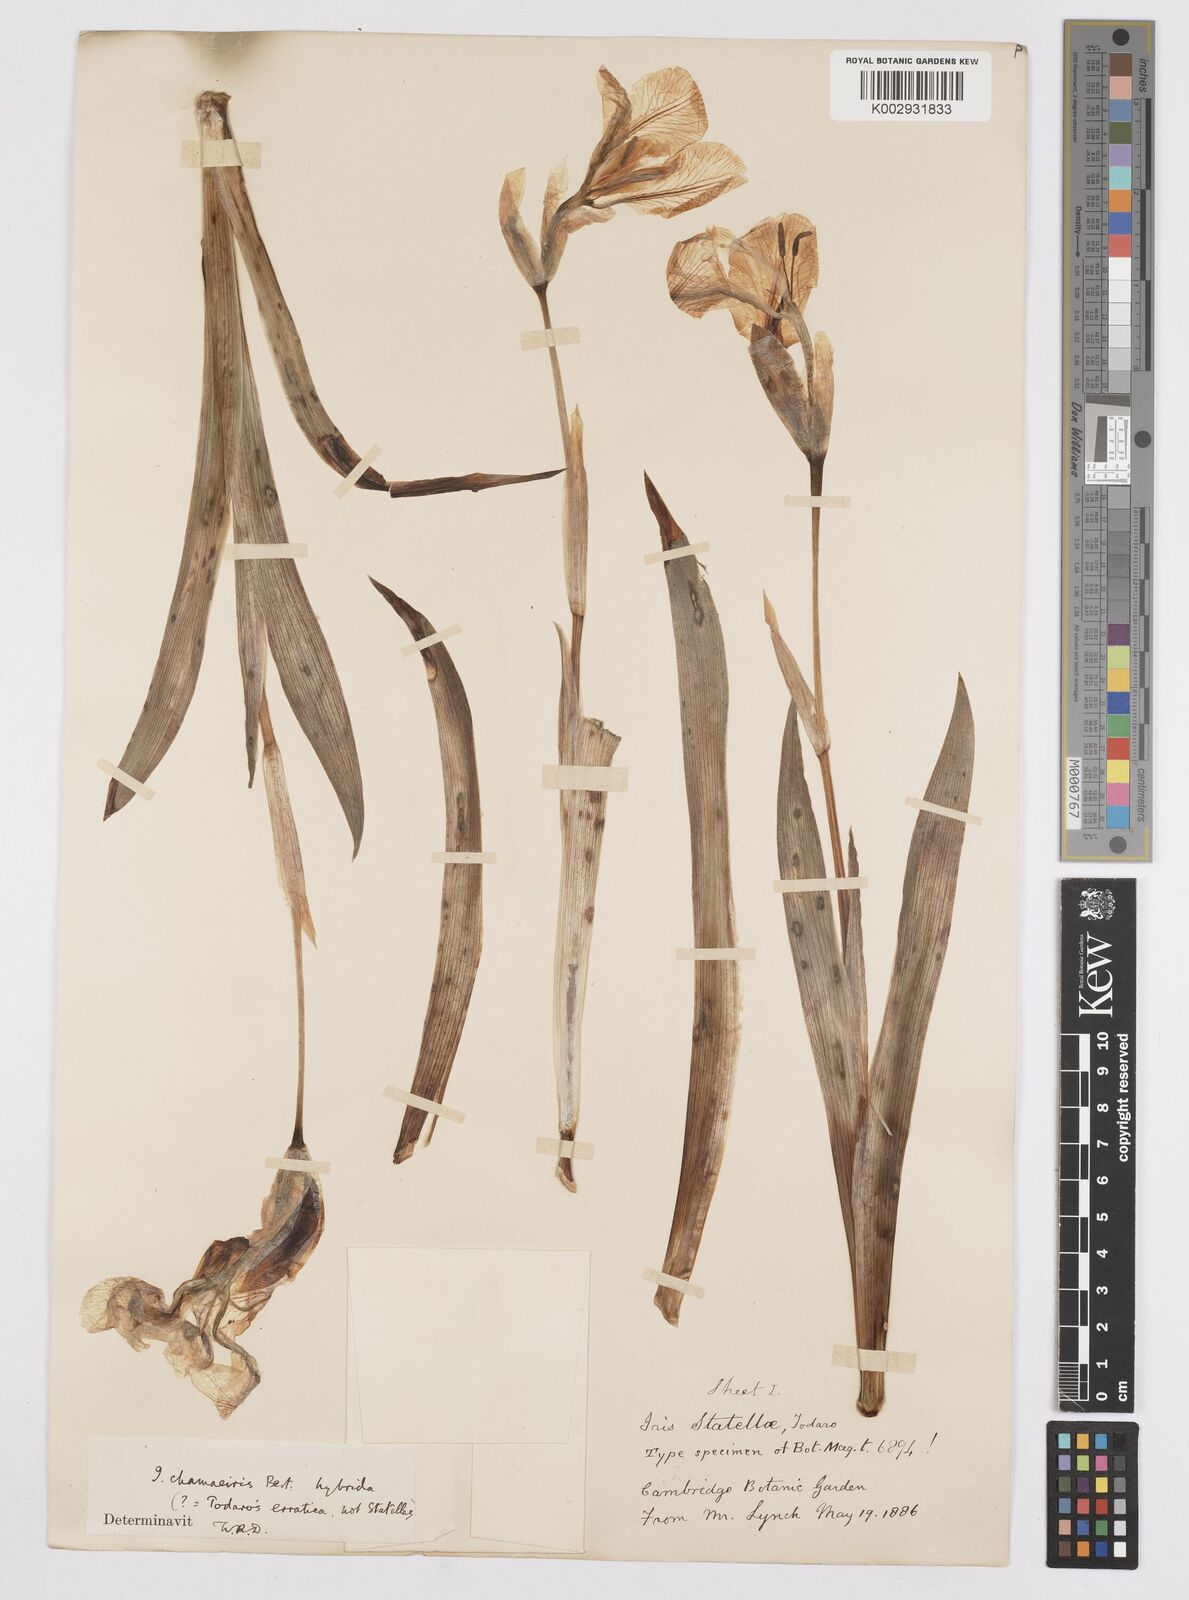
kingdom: Plantae
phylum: Tracheophyta
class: Liliopsida
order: Asparagales
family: Iridaceae
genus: Iris
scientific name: Iris lutescens
